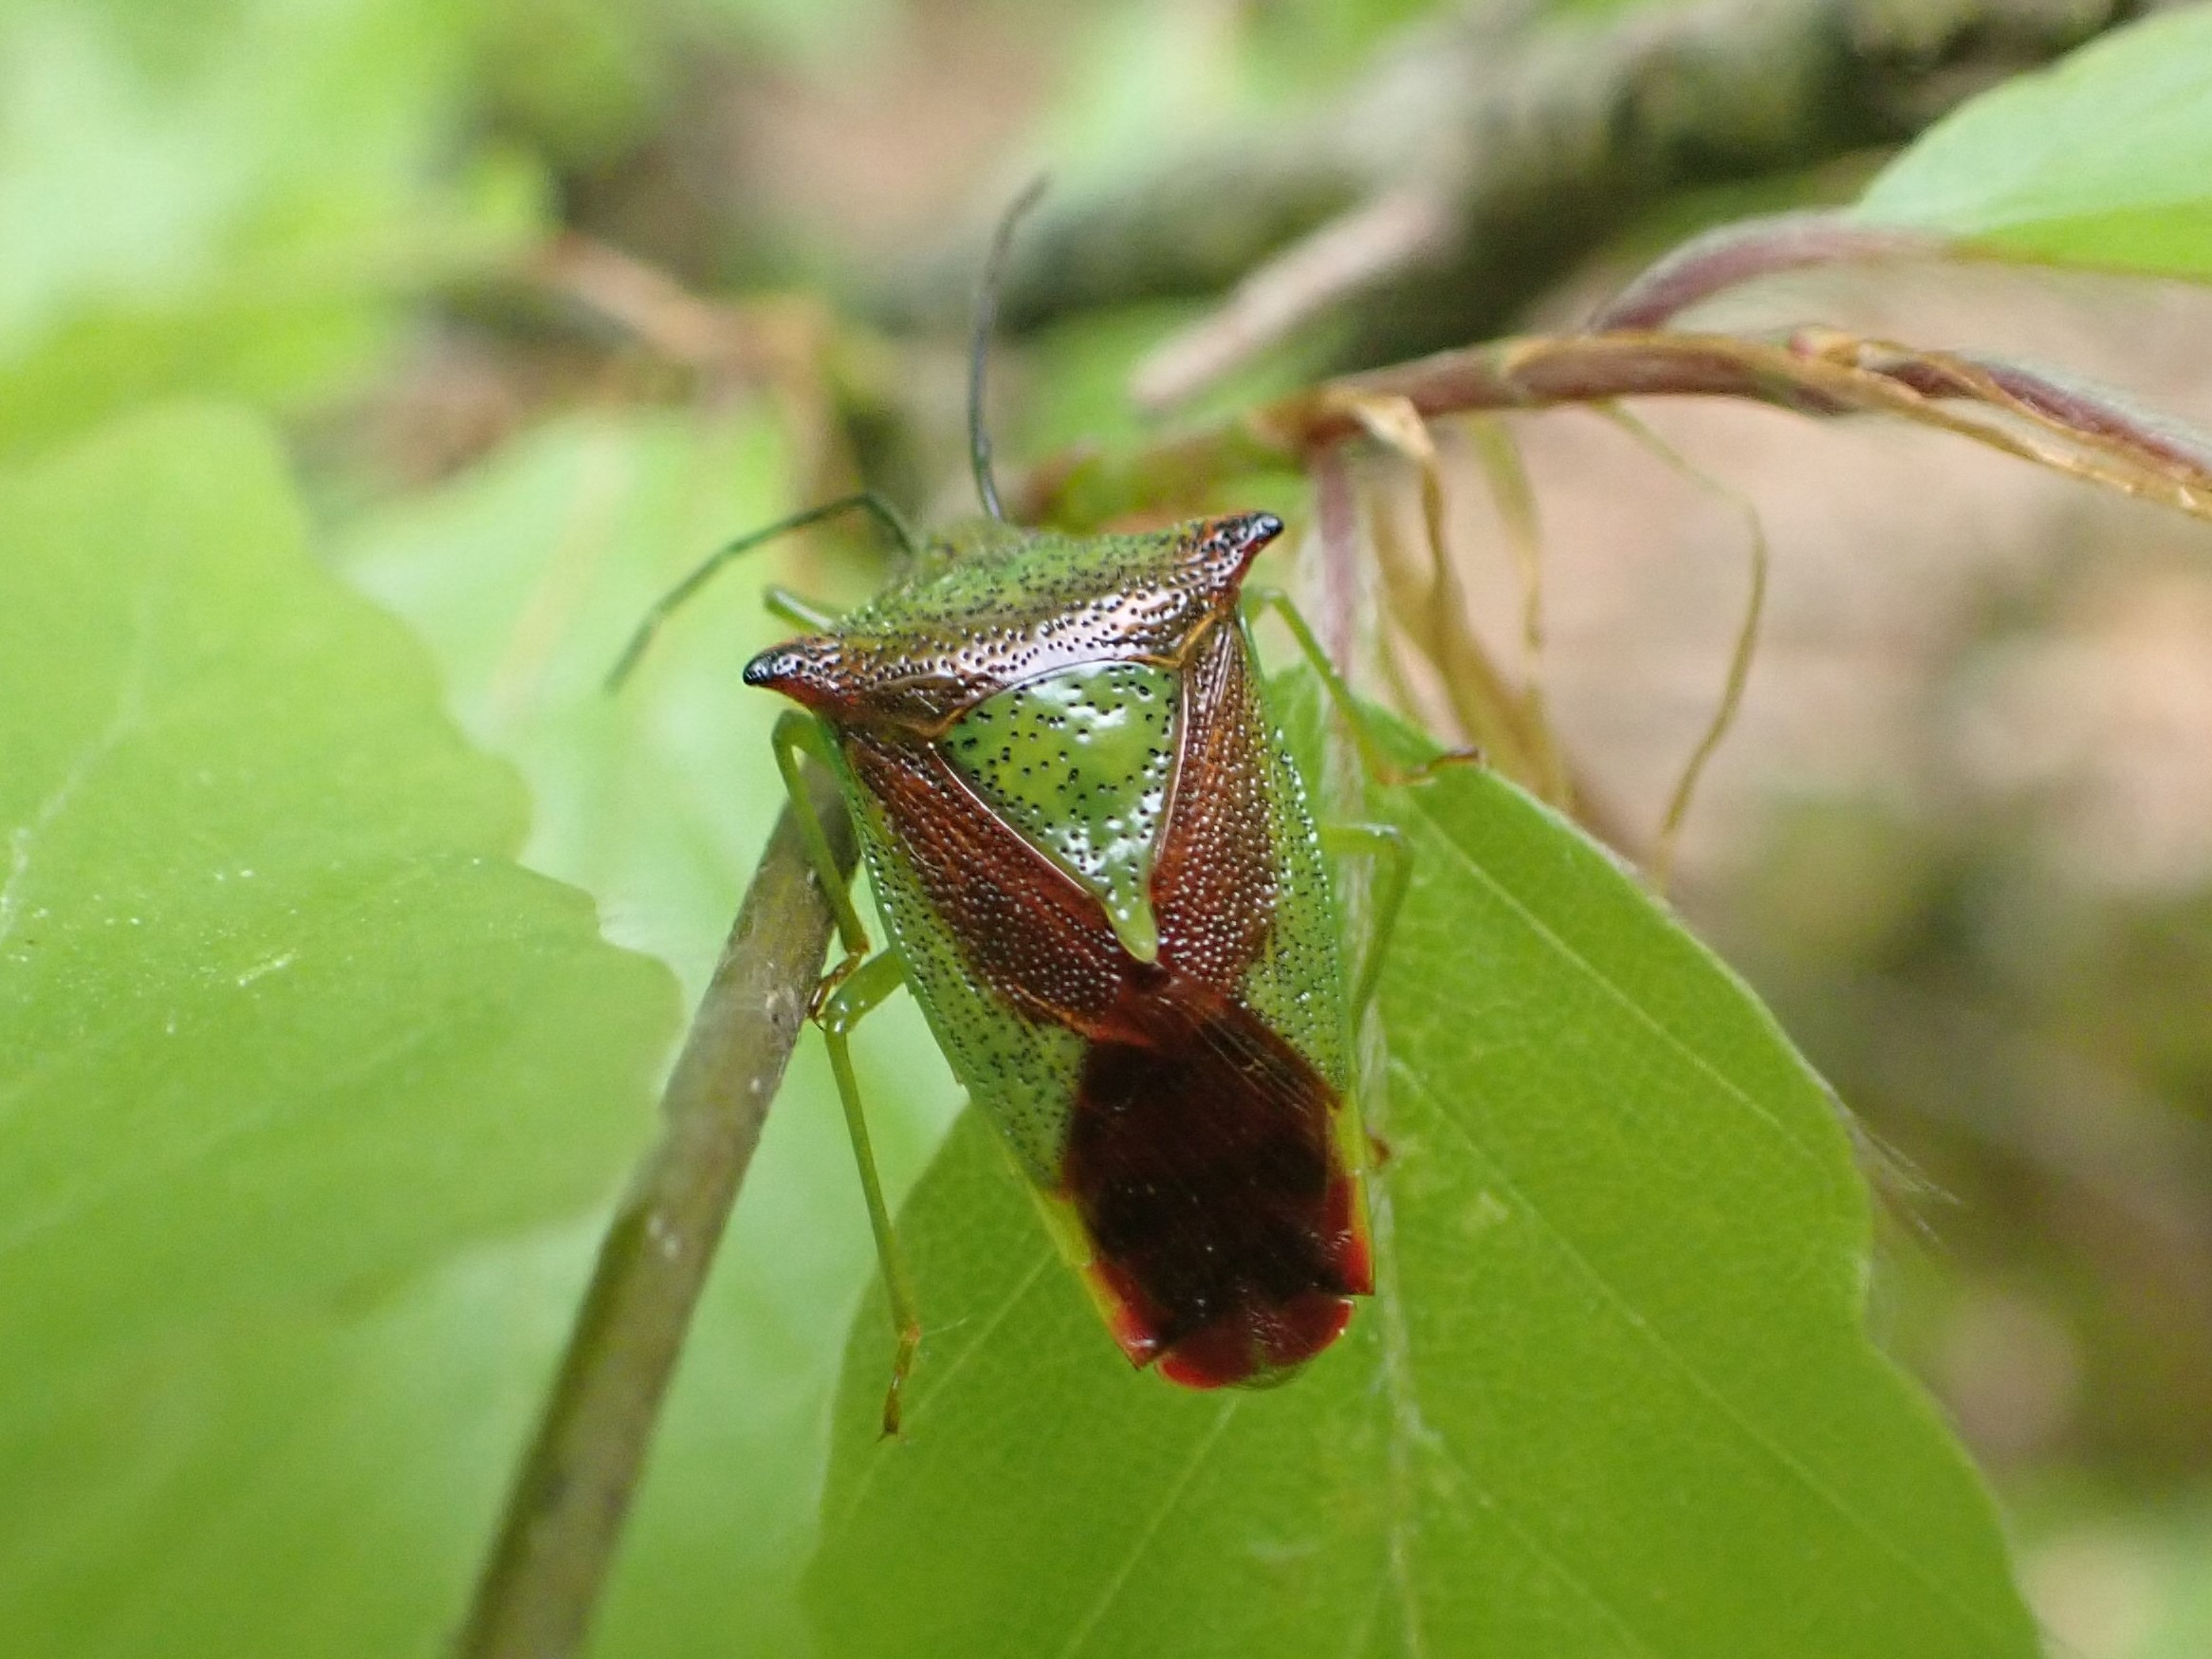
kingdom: Animalia
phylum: Arthropoda
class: Insecta
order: Hemiptera
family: Acanthosomatidae
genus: Acanthosoma
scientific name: Acanthosoma haemorrhoidale
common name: Stor løvtæge
